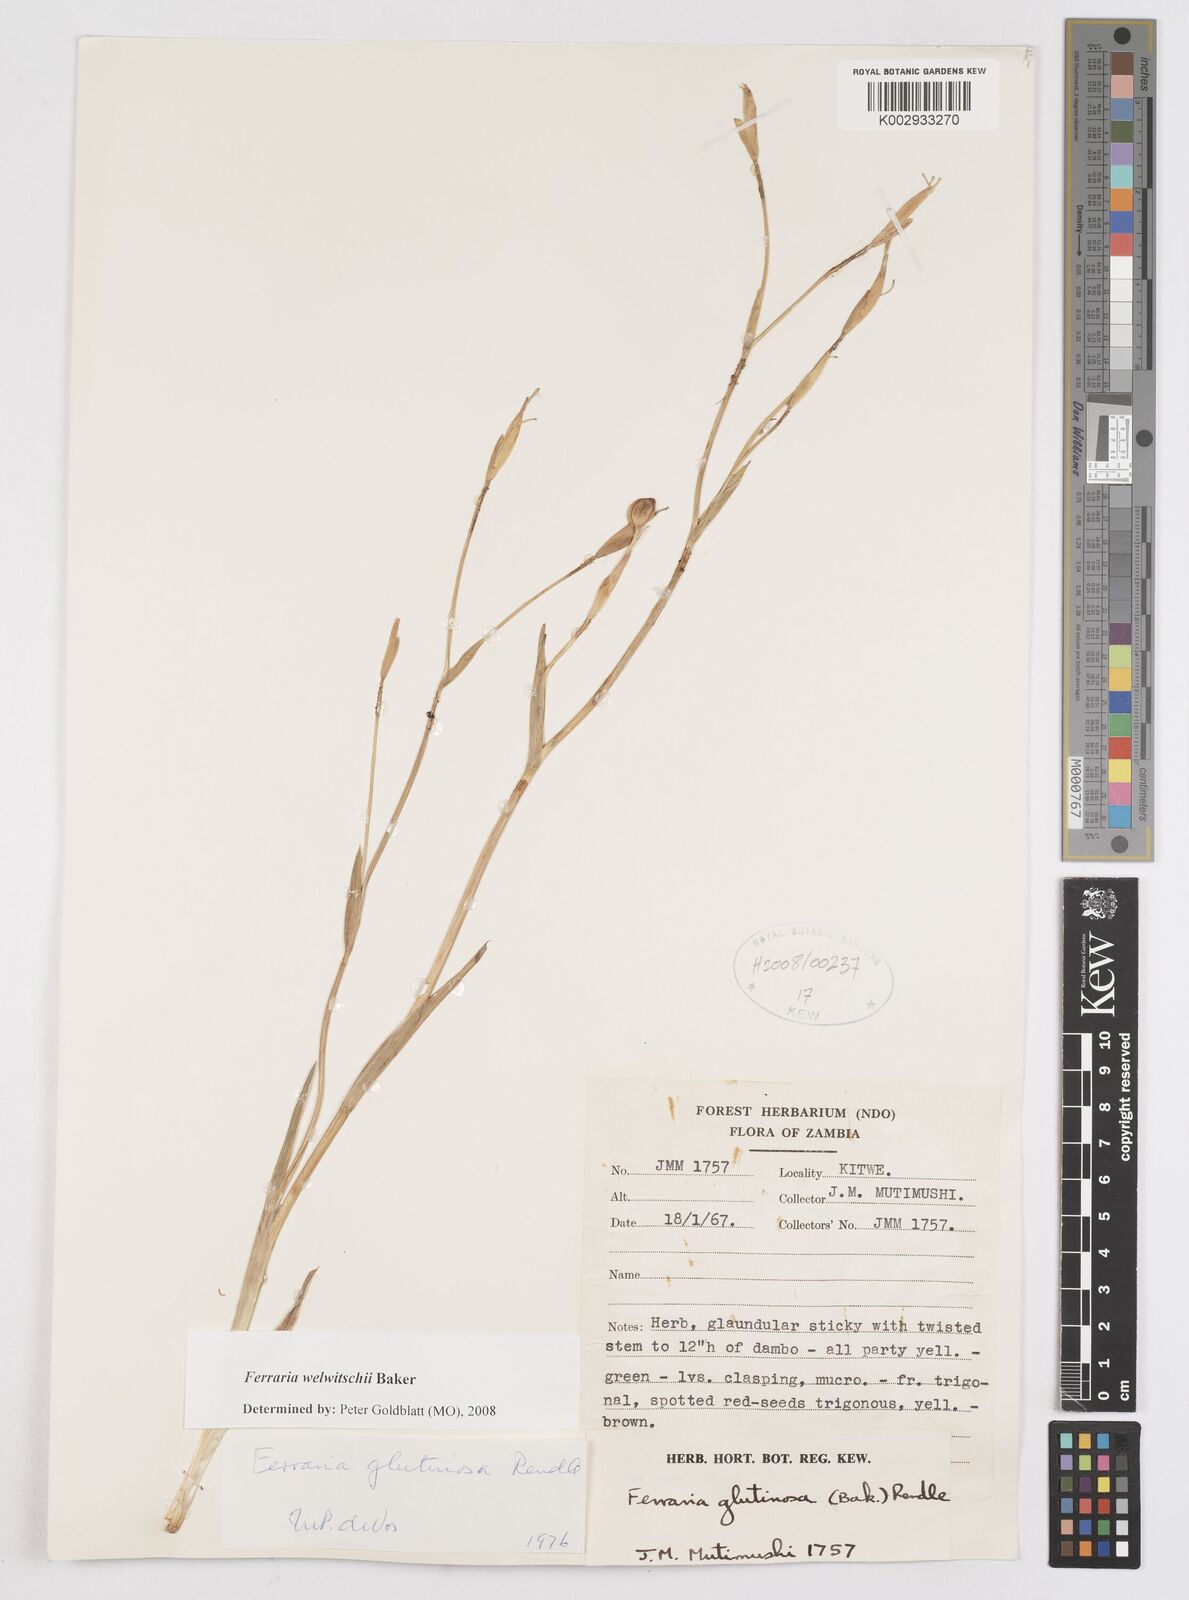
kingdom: Plantae
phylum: Tracheophyta
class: Liliopsida
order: Asparagales
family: Iridaceae
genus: Ferraria
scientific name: Ferraria welwitschii
